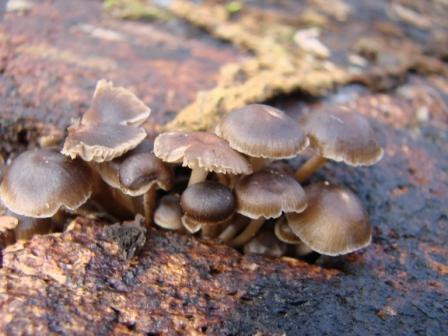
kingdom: Fungi
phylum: Basidiomycota
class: Agaricomycetes
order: Agaricales
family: Mycenaceae
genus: Mycena
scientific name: Mycena tintinnabulum
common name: vinter-huesvamp
